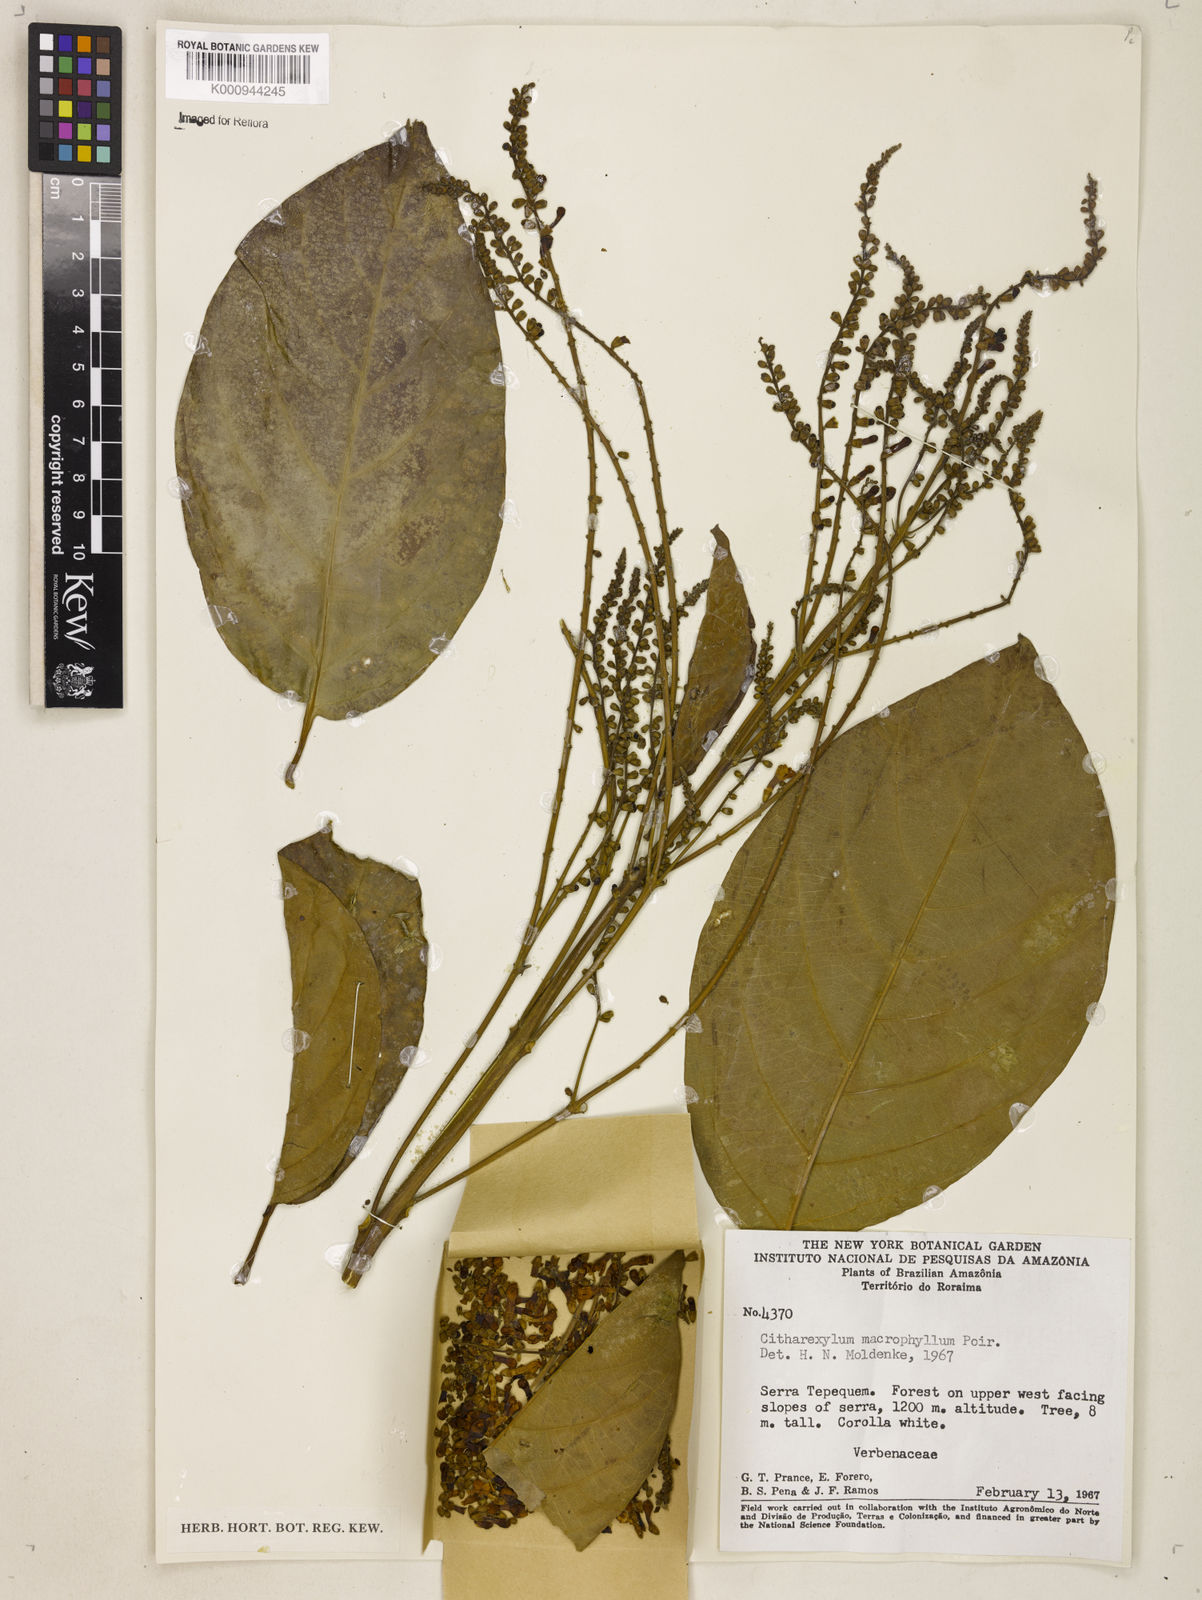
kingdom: Plantae
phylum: Tracheophyta
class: Magnoliopsida
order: Lamiales
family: Verbenaceae
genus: Citharexylum
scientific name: Citharexylum spinosum
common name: Fiddlewood
